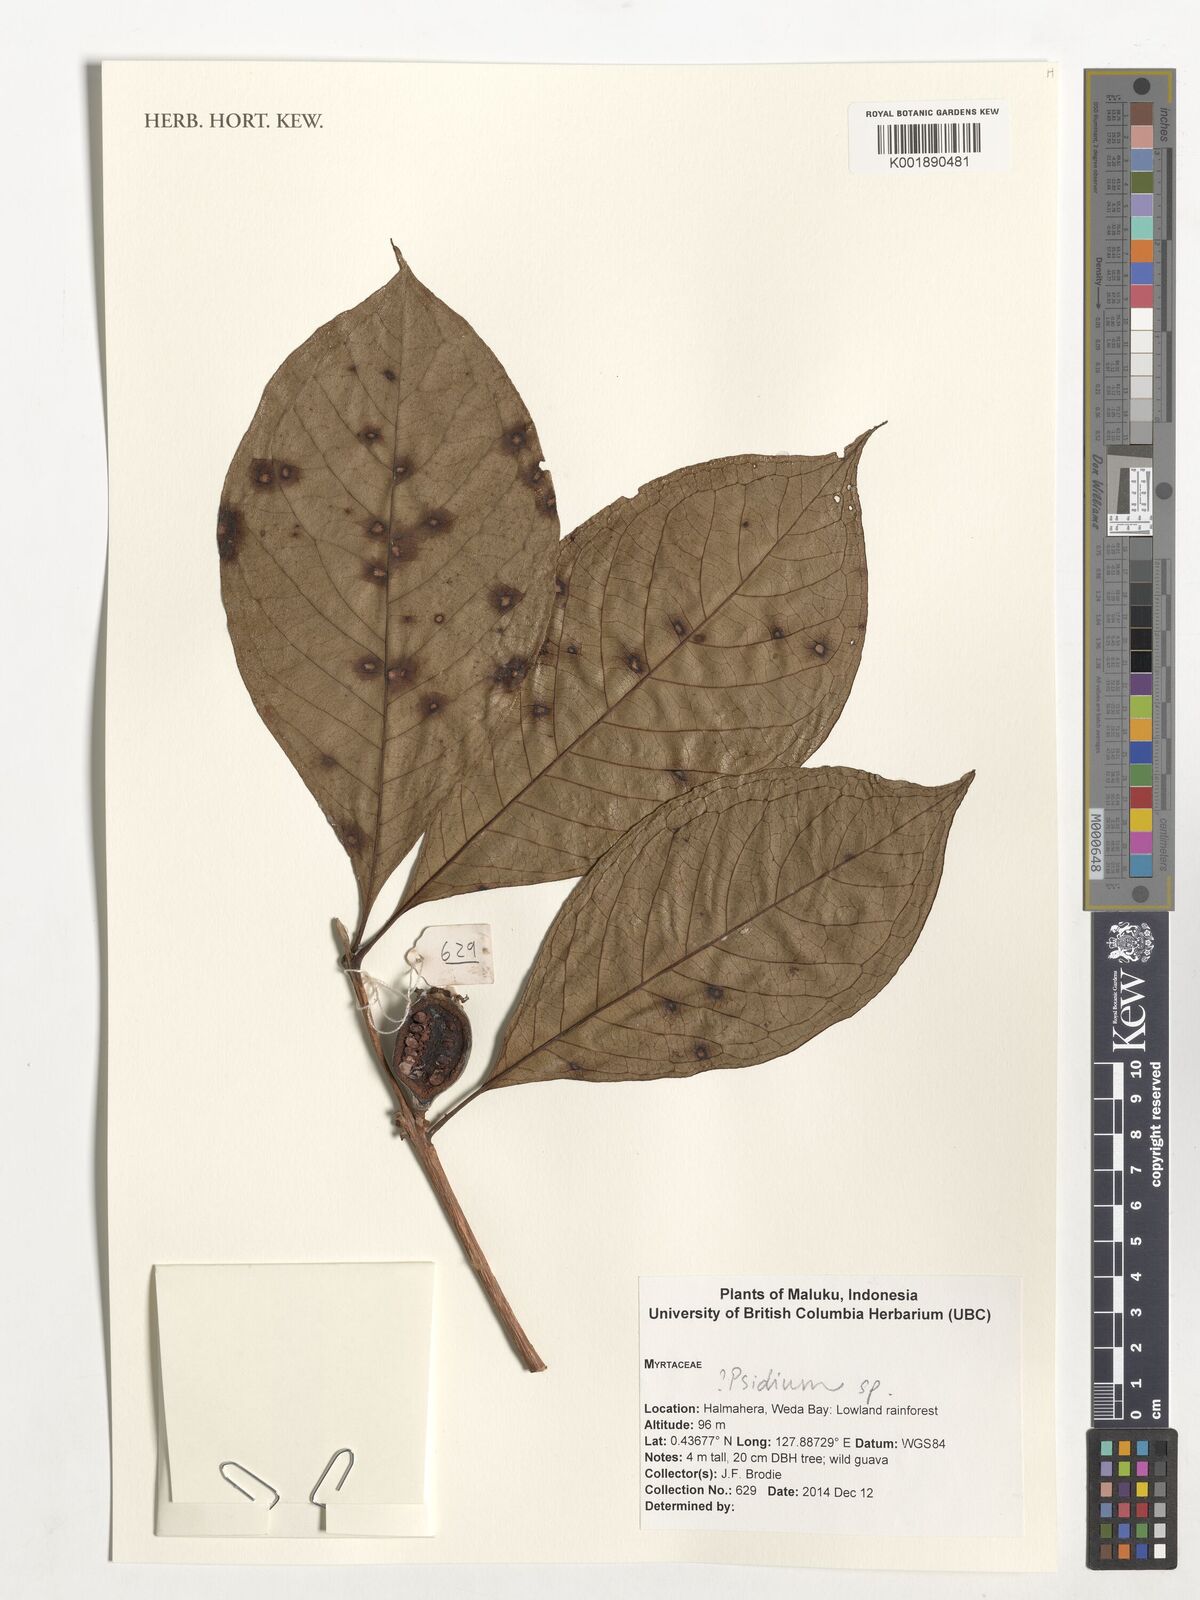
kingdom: Plantae
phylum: Tracheophyta
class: Magnoliopsida
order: Myrtales
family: Myrtaceae
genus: Psidium
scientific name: Psidium
